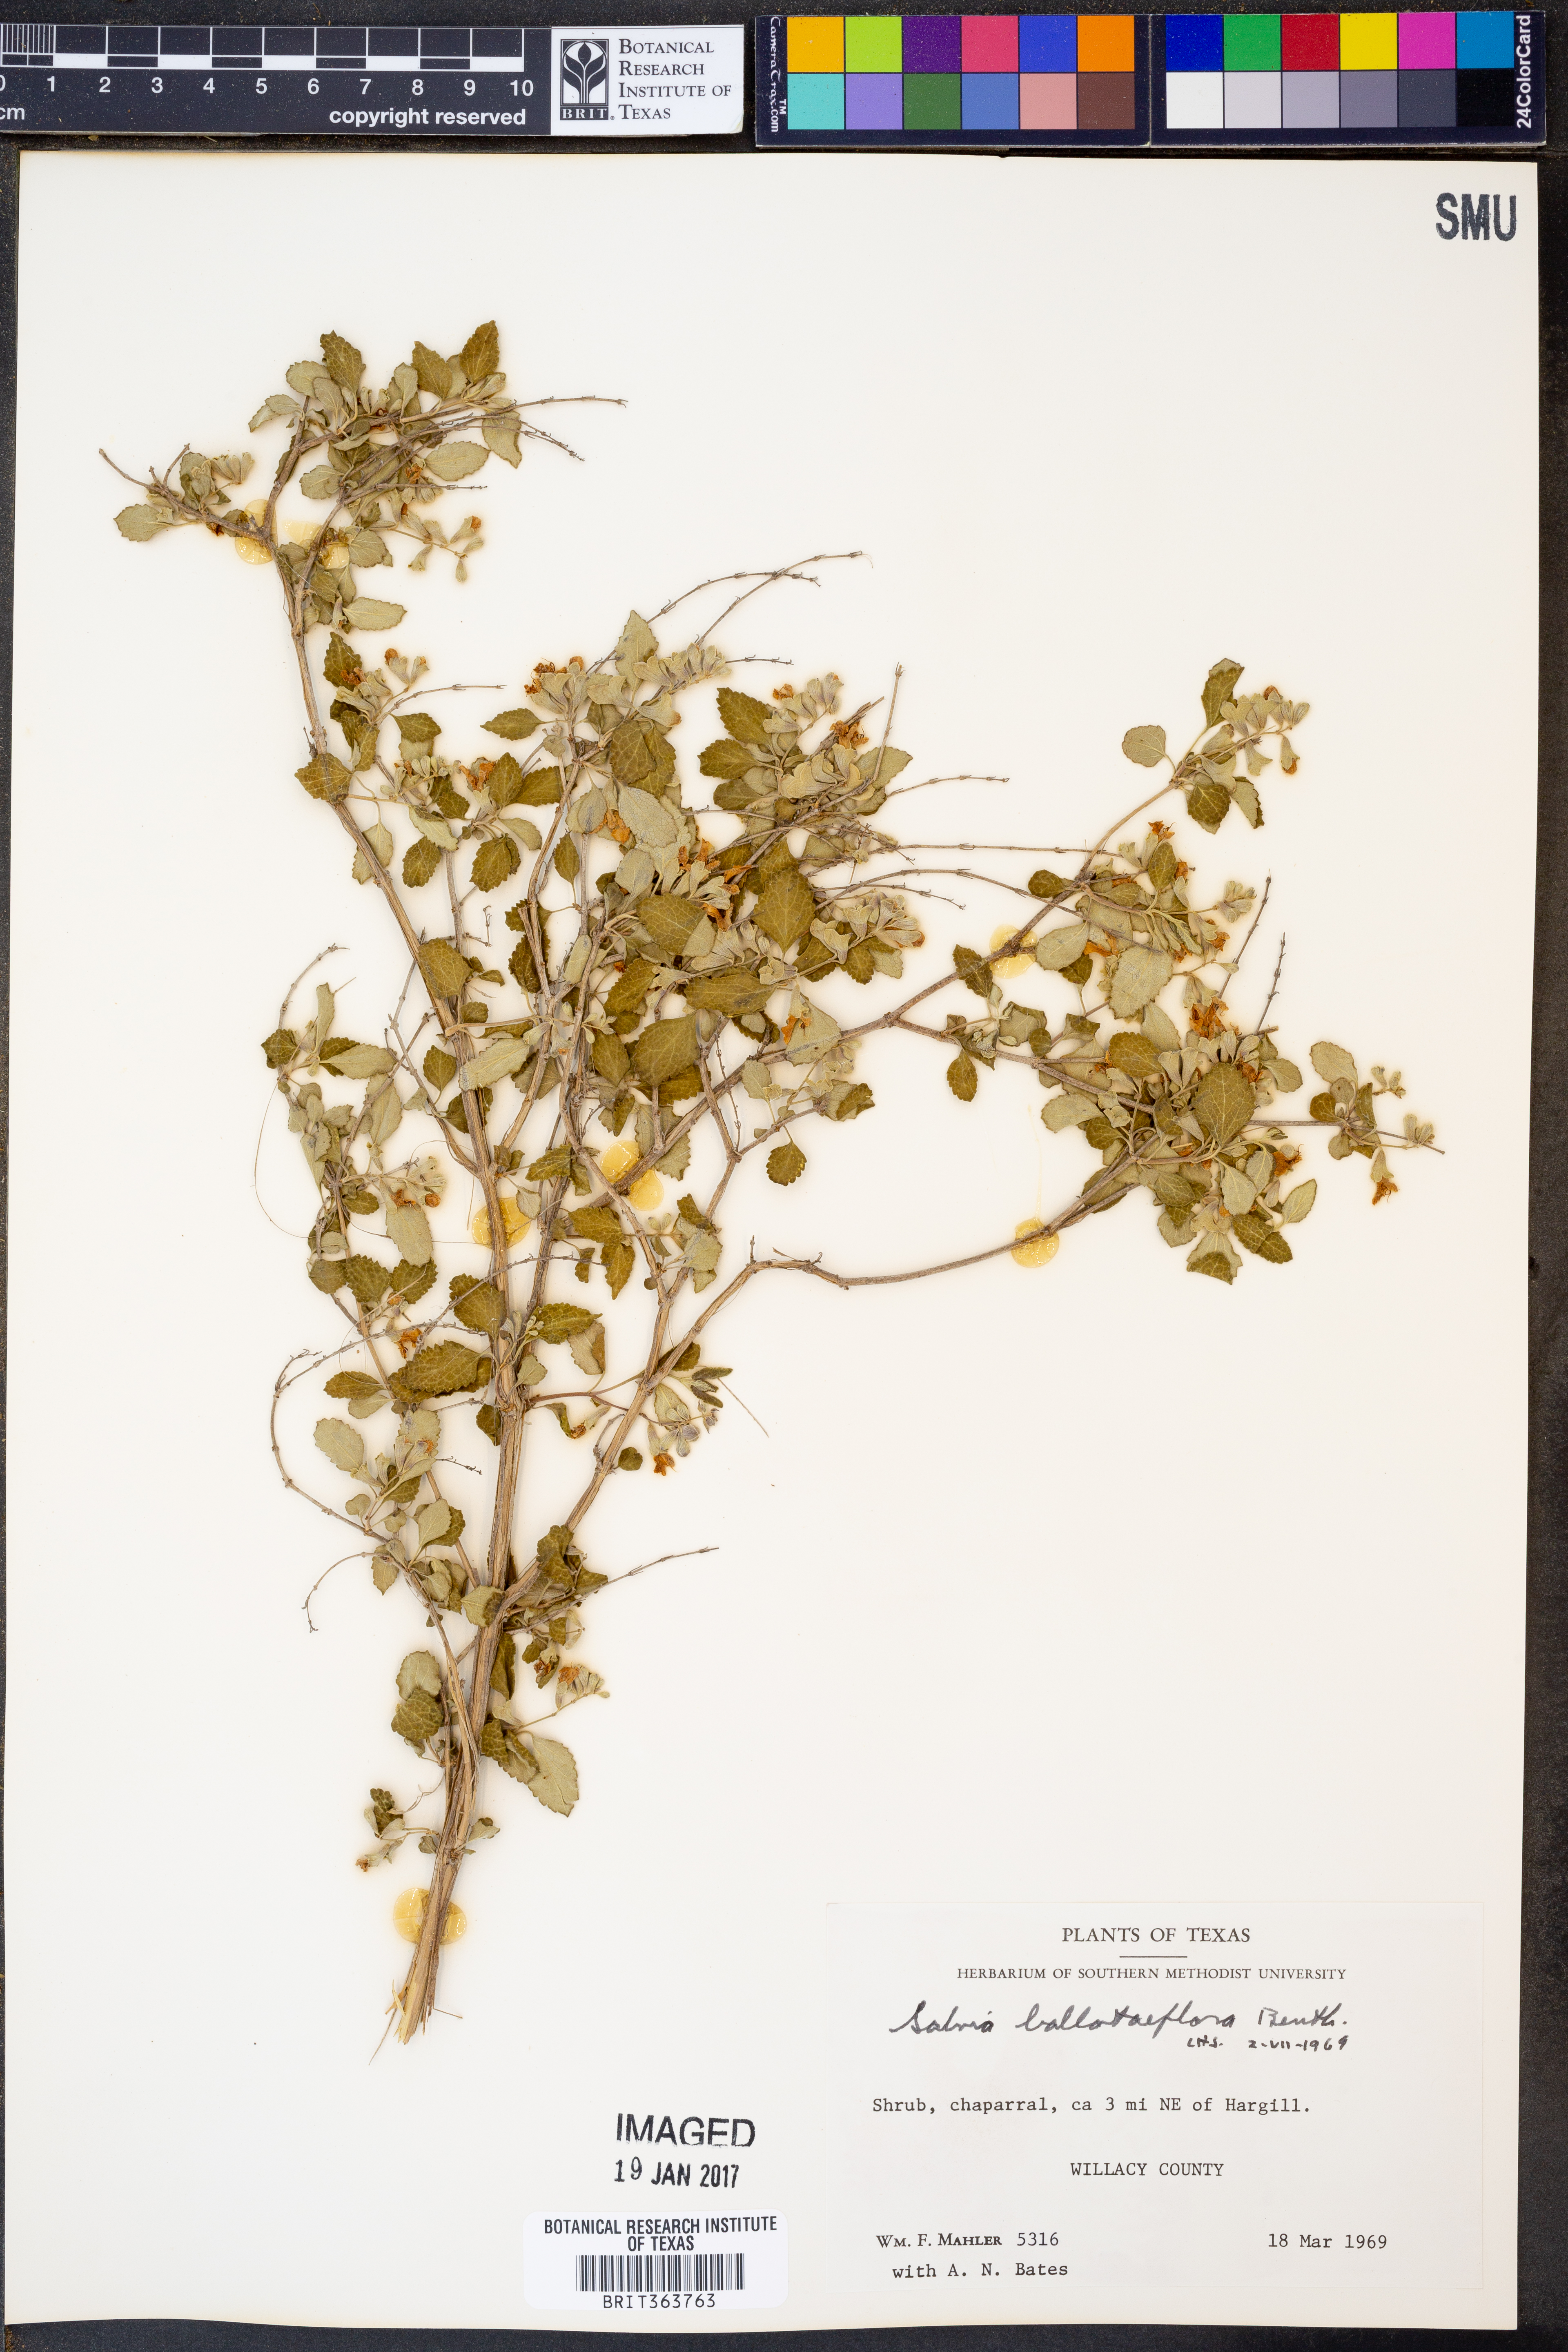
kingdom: Plantae
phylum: Tracheophyta
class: Magnoliopsida
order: Lamiales
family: Lamiaceae
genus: Salvia
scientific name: Salvia ballotiflora
